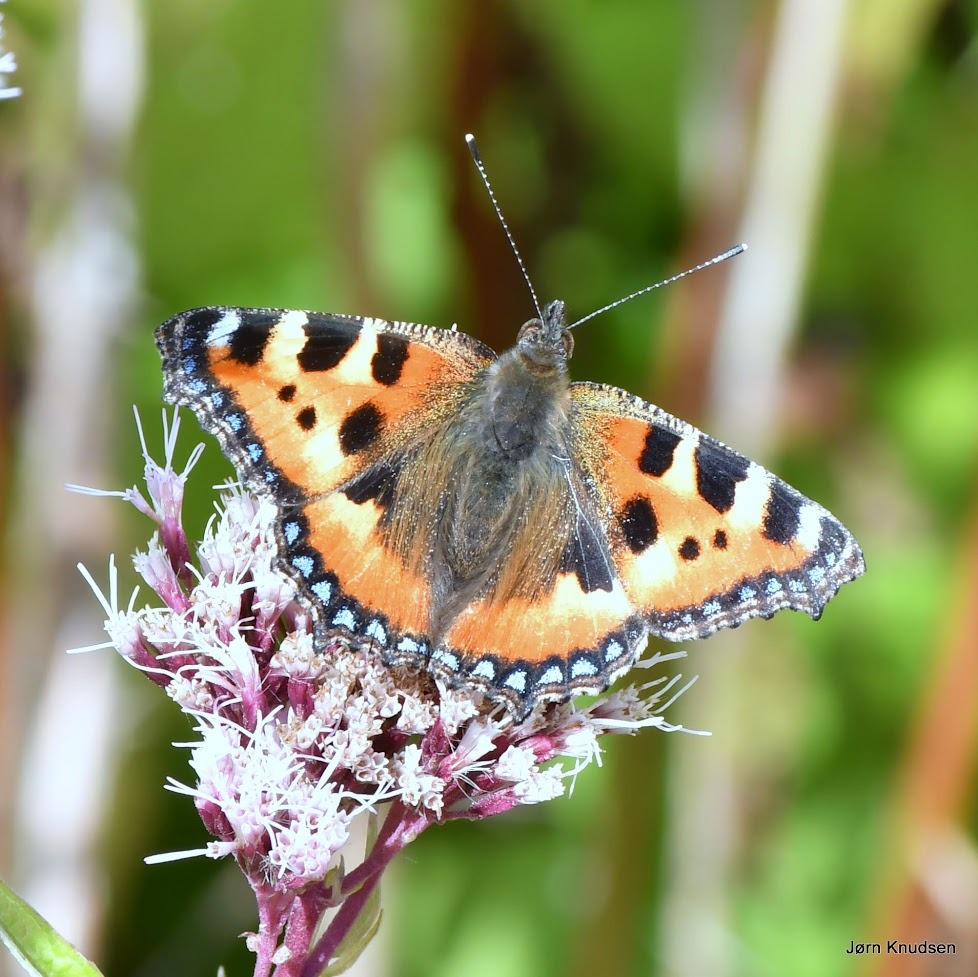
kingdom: Animalia
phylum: Arthropoda
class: Insecta
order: Lepidoptera
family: Nymphalidae
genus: Aglais
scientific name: Aglais urticae
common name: Nældens takvinge
